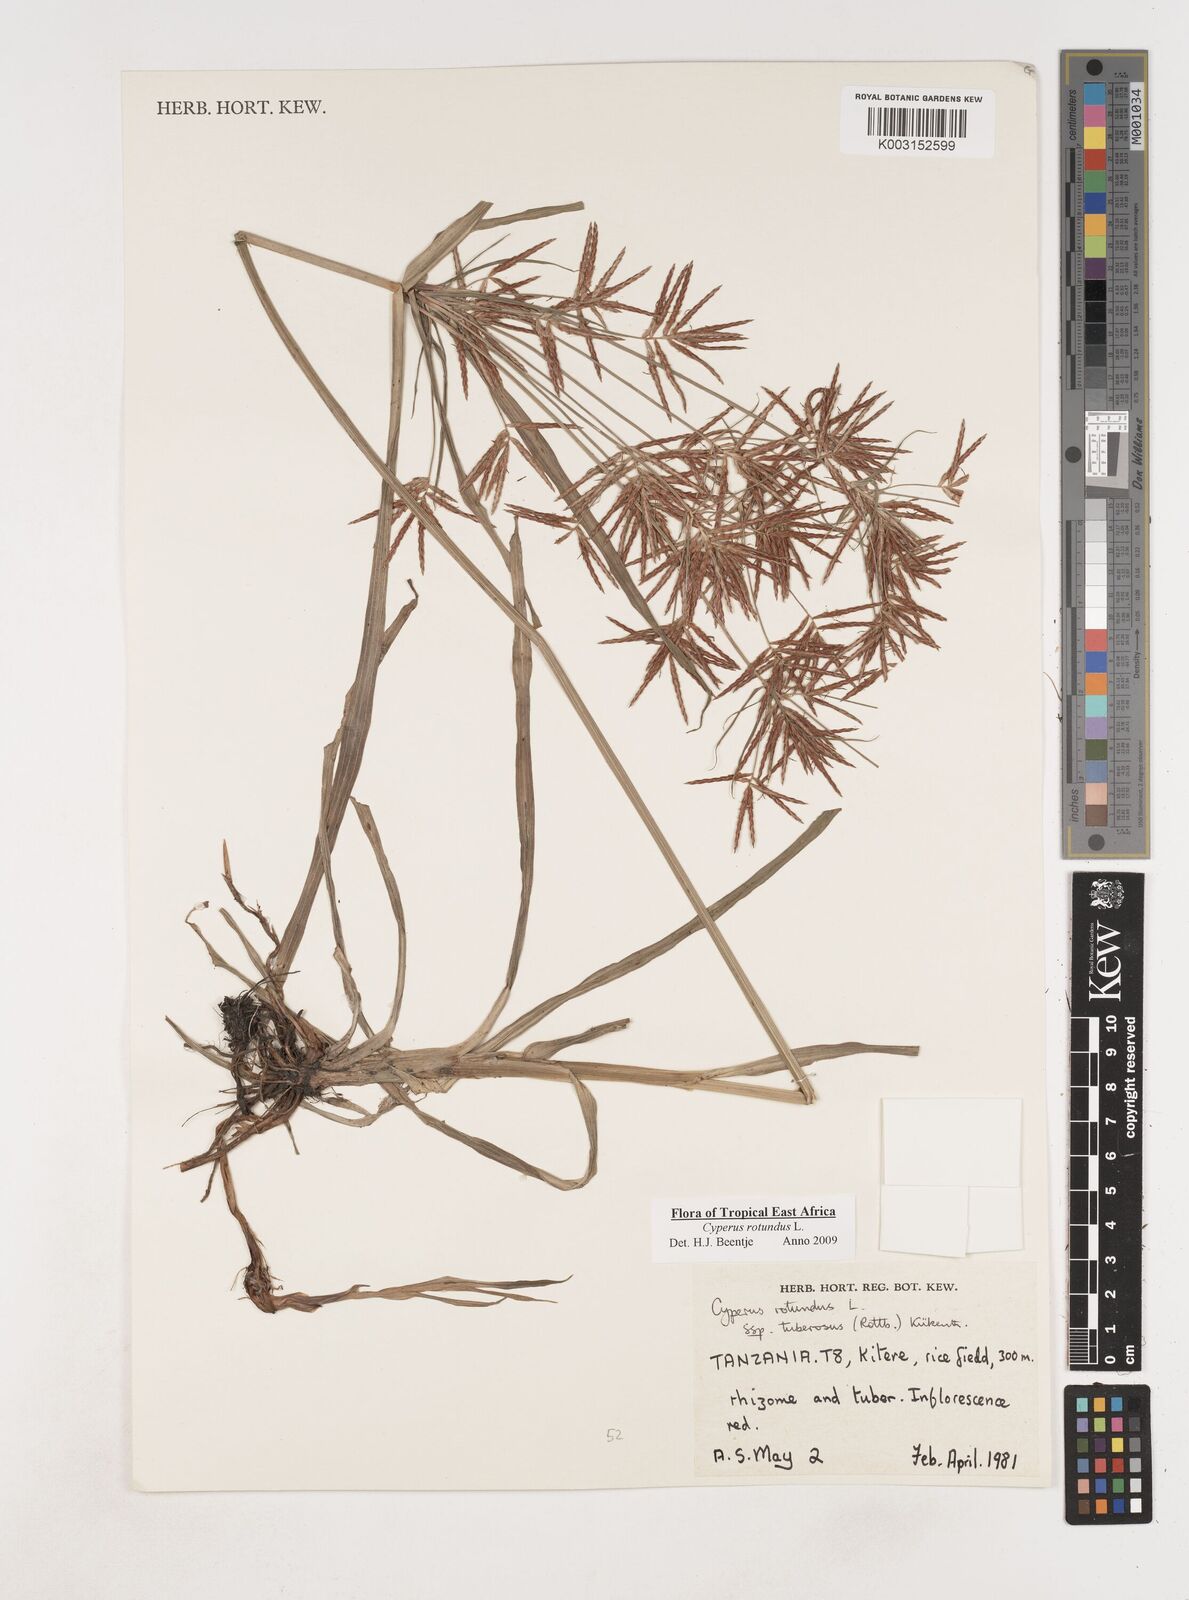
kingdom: Plantae
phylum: Tracheophyta
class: Liliopsida
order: Poales
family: Cyperaceae
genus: Cyperus
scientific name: Cyperus tuberosus
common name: Nut grass
